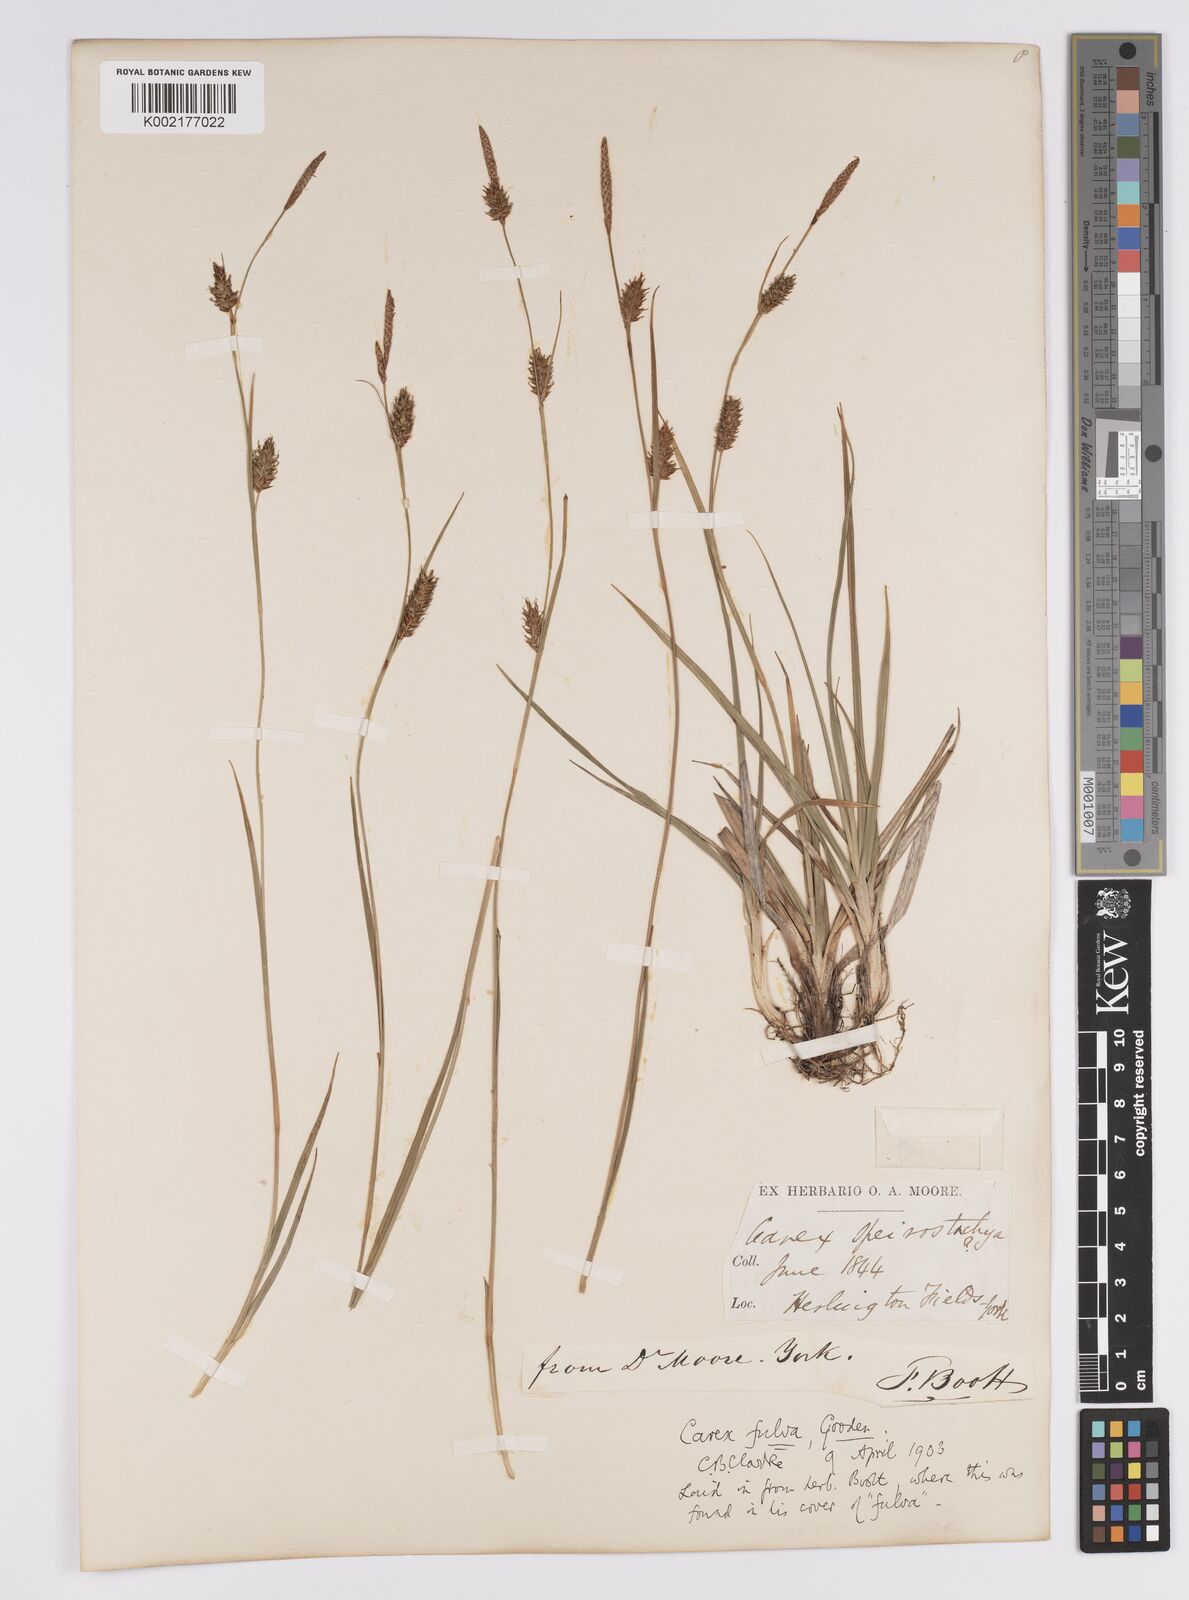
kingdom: Plantae
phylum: Tracheophyta
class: Liliopsida
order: Poales
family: Cyperaceae
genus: Carex
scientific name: Carex hostiana
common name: Tawny sedge
